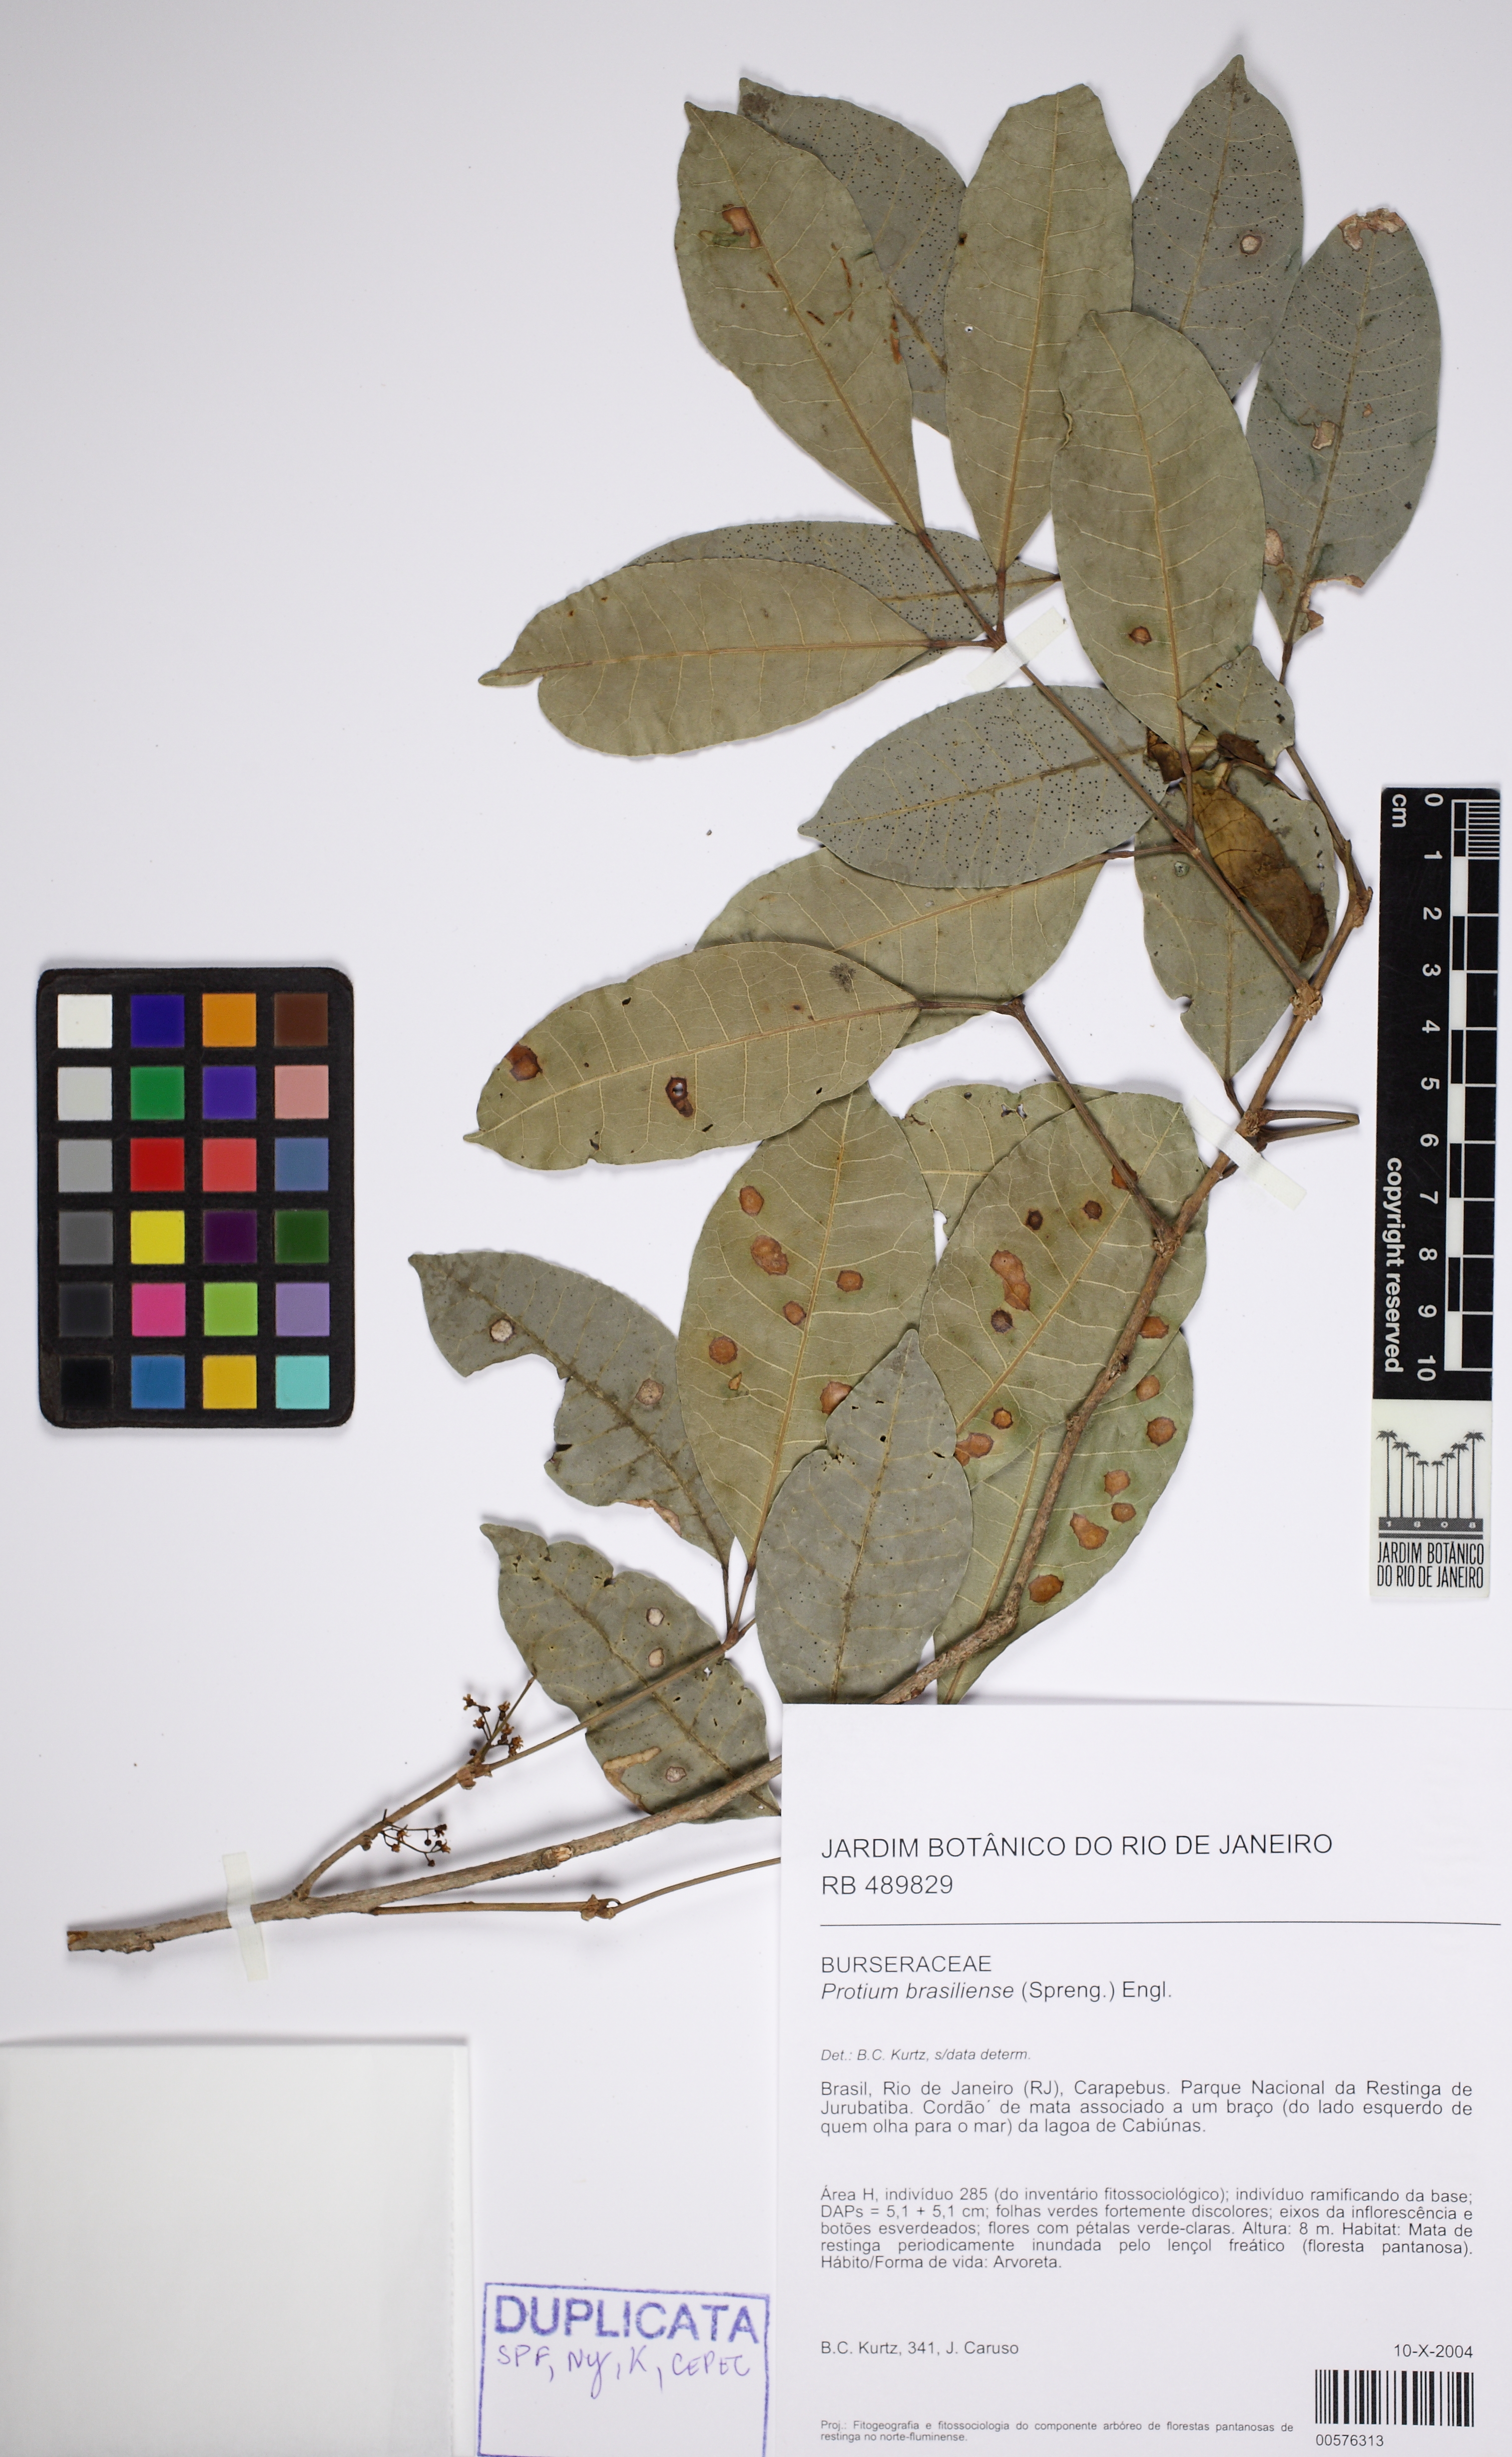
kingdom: Plantae
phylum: Tracheophyta
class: Magnoliopsida
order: Sapindales
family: Burseraceae
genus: Protium
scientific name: Protium brasiliense
